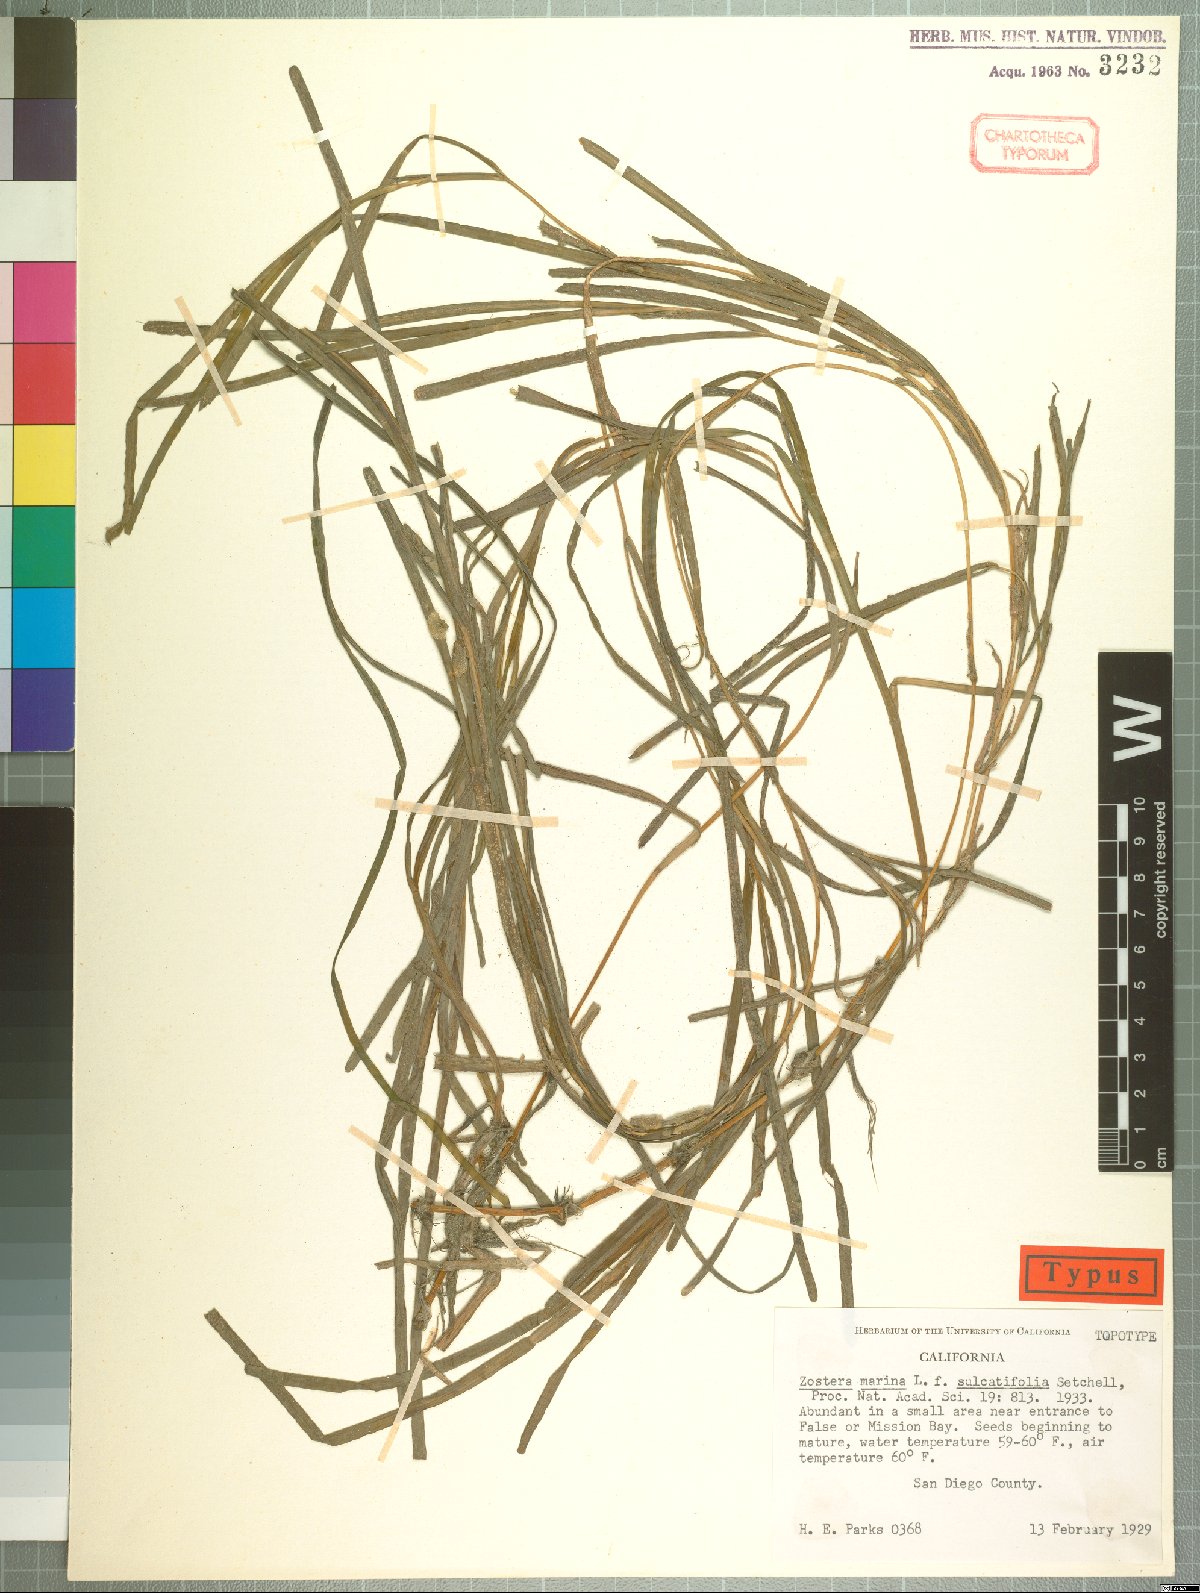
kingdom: Plantae
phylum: Tracheophyta
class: Liliopsida
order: Alismatales
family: Zosteraceae
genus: Zostera
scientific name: Zostera marina
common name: Eelgrass
